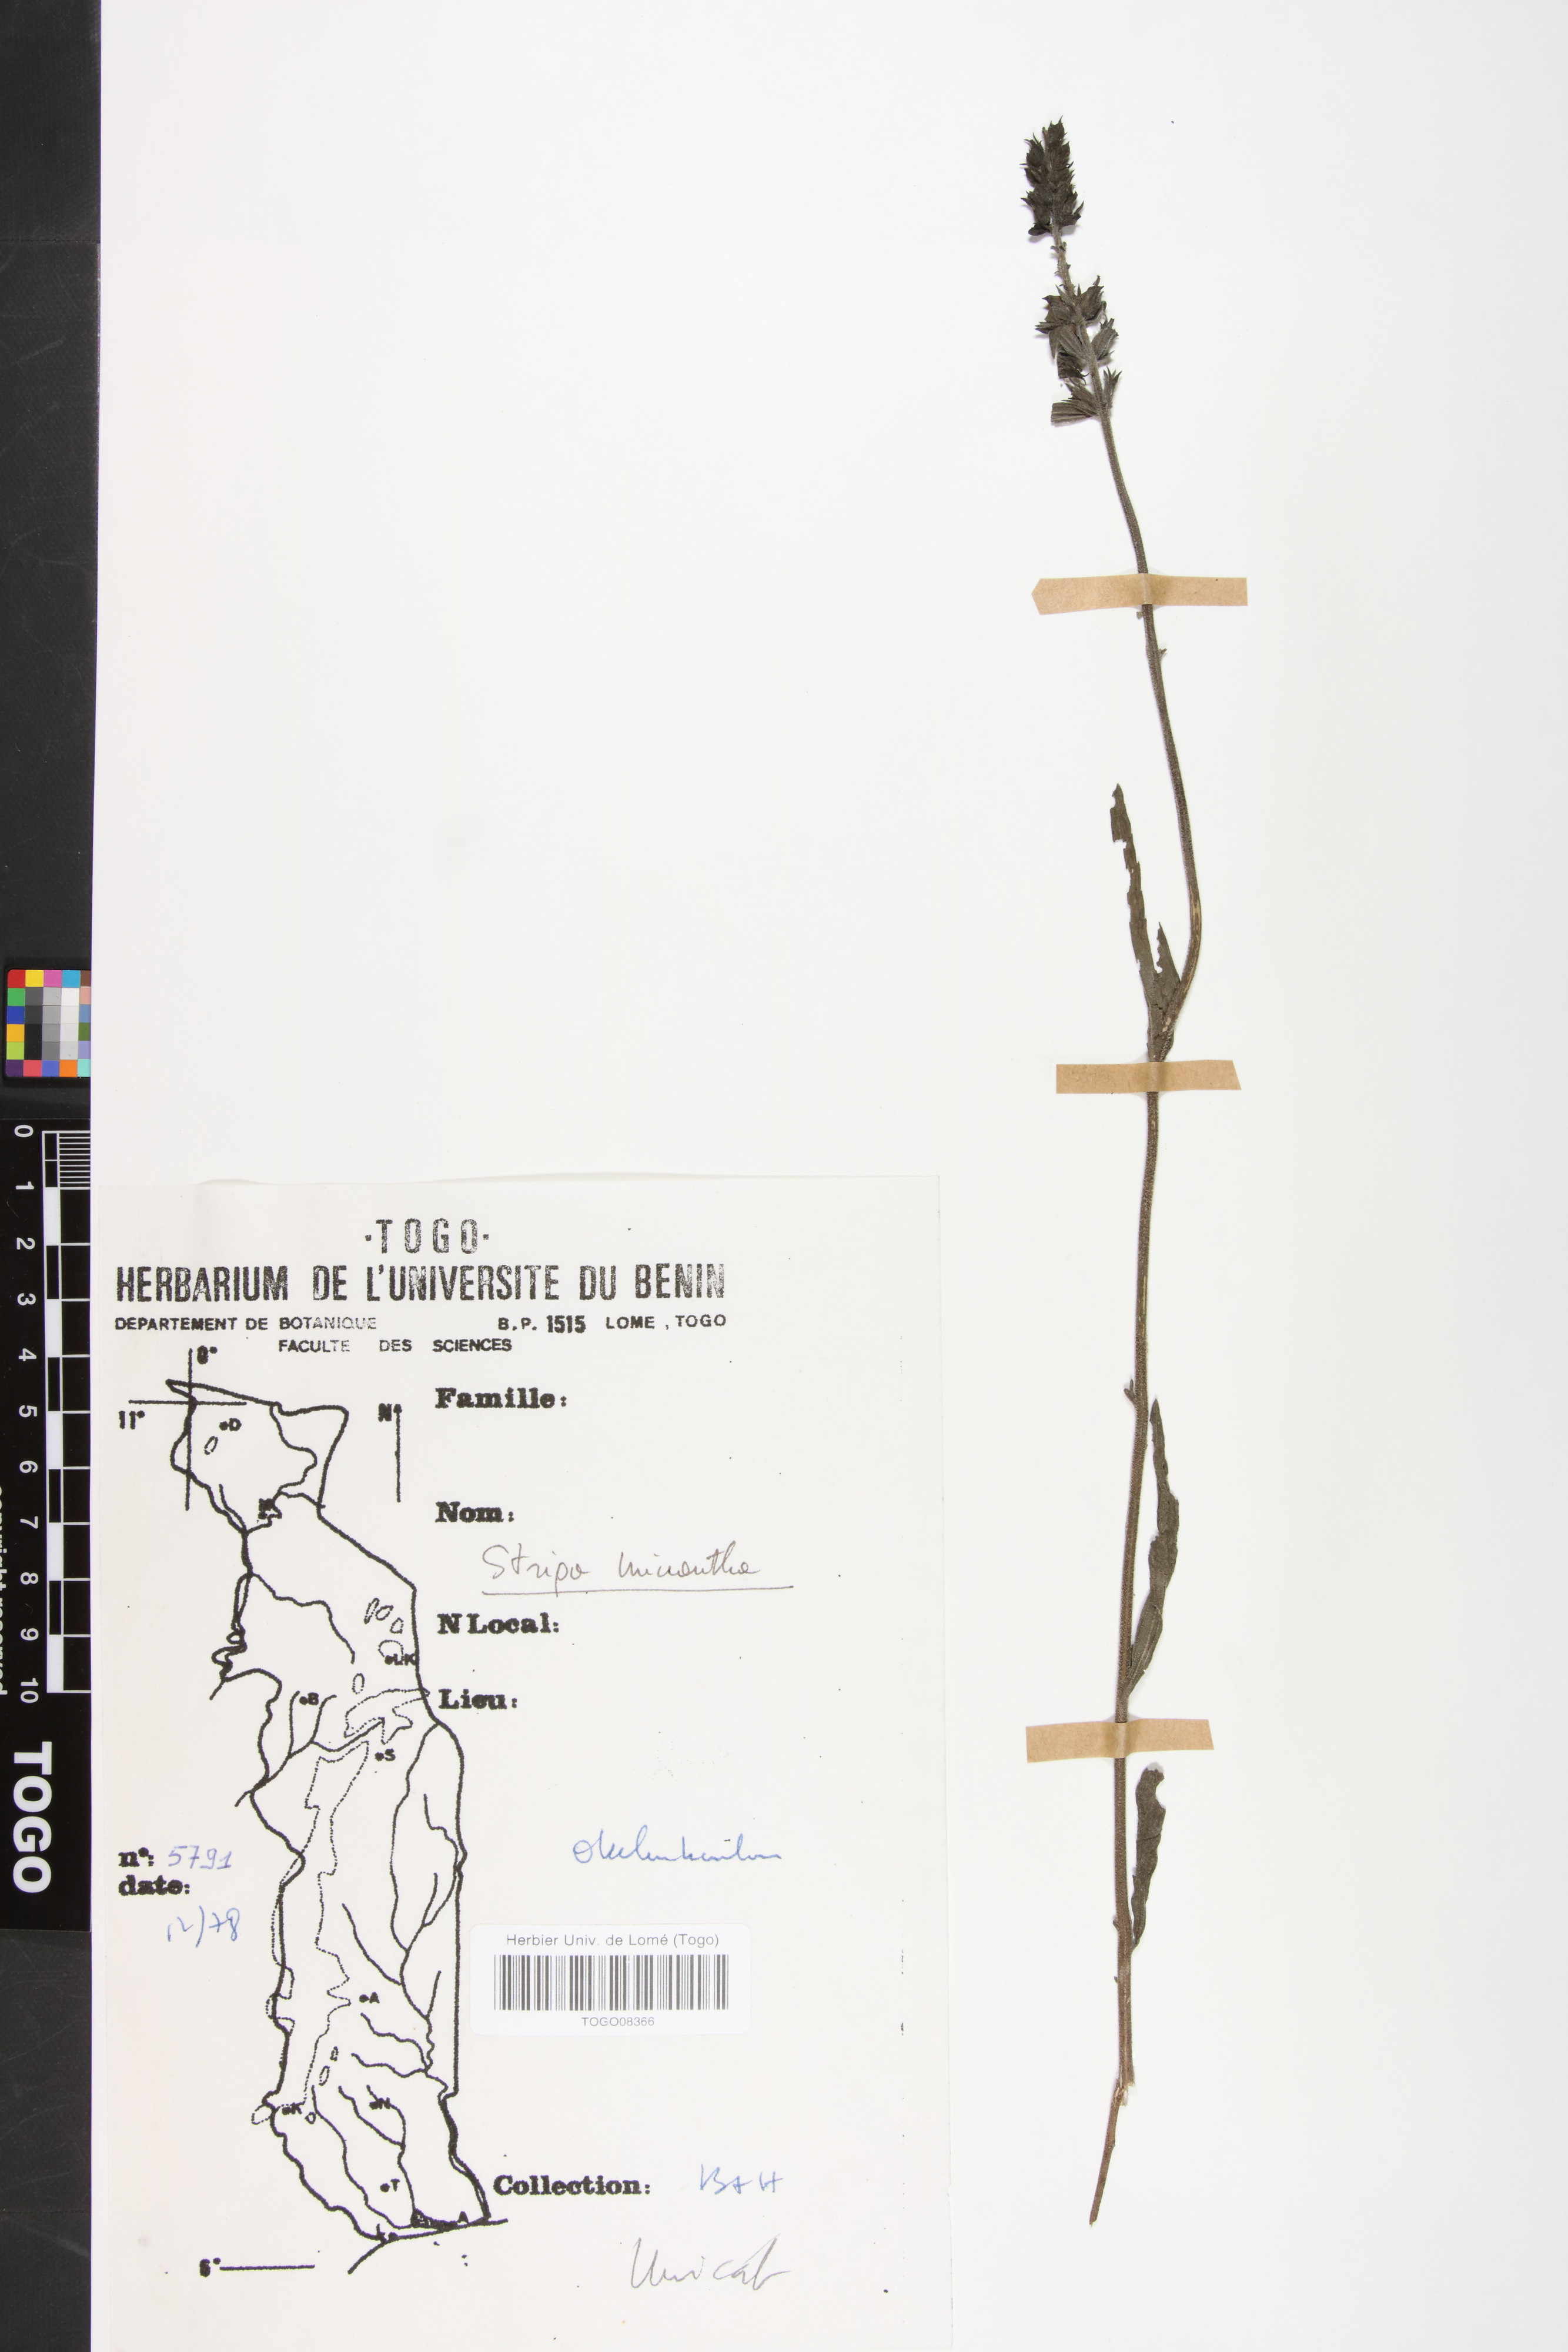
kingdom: Plantae
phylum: Tracheophyta
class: Magnoliopsida
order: Lamiales
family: Orobanchaceae
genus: Striga
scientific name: Striga macrantha
